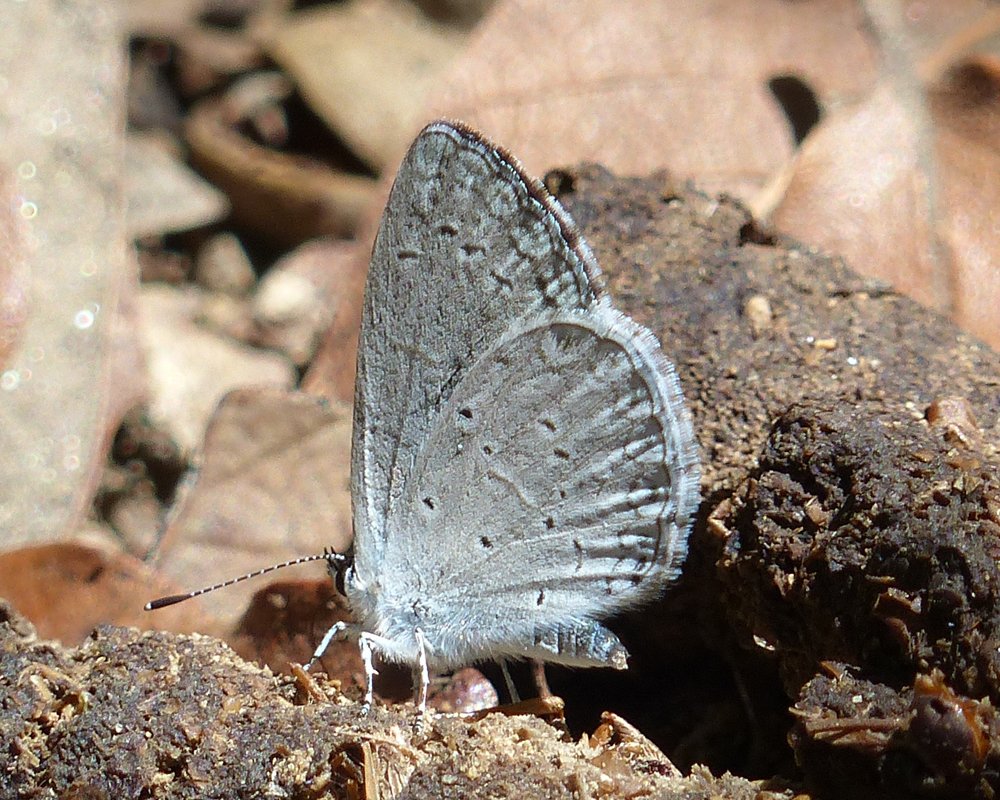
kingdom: Animalia
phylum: Arthropoda
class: Insecta
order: Lepidoptera
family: Lycaenidae
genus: Celastrina
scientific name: Celastrina ladon
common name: Spring Azure
